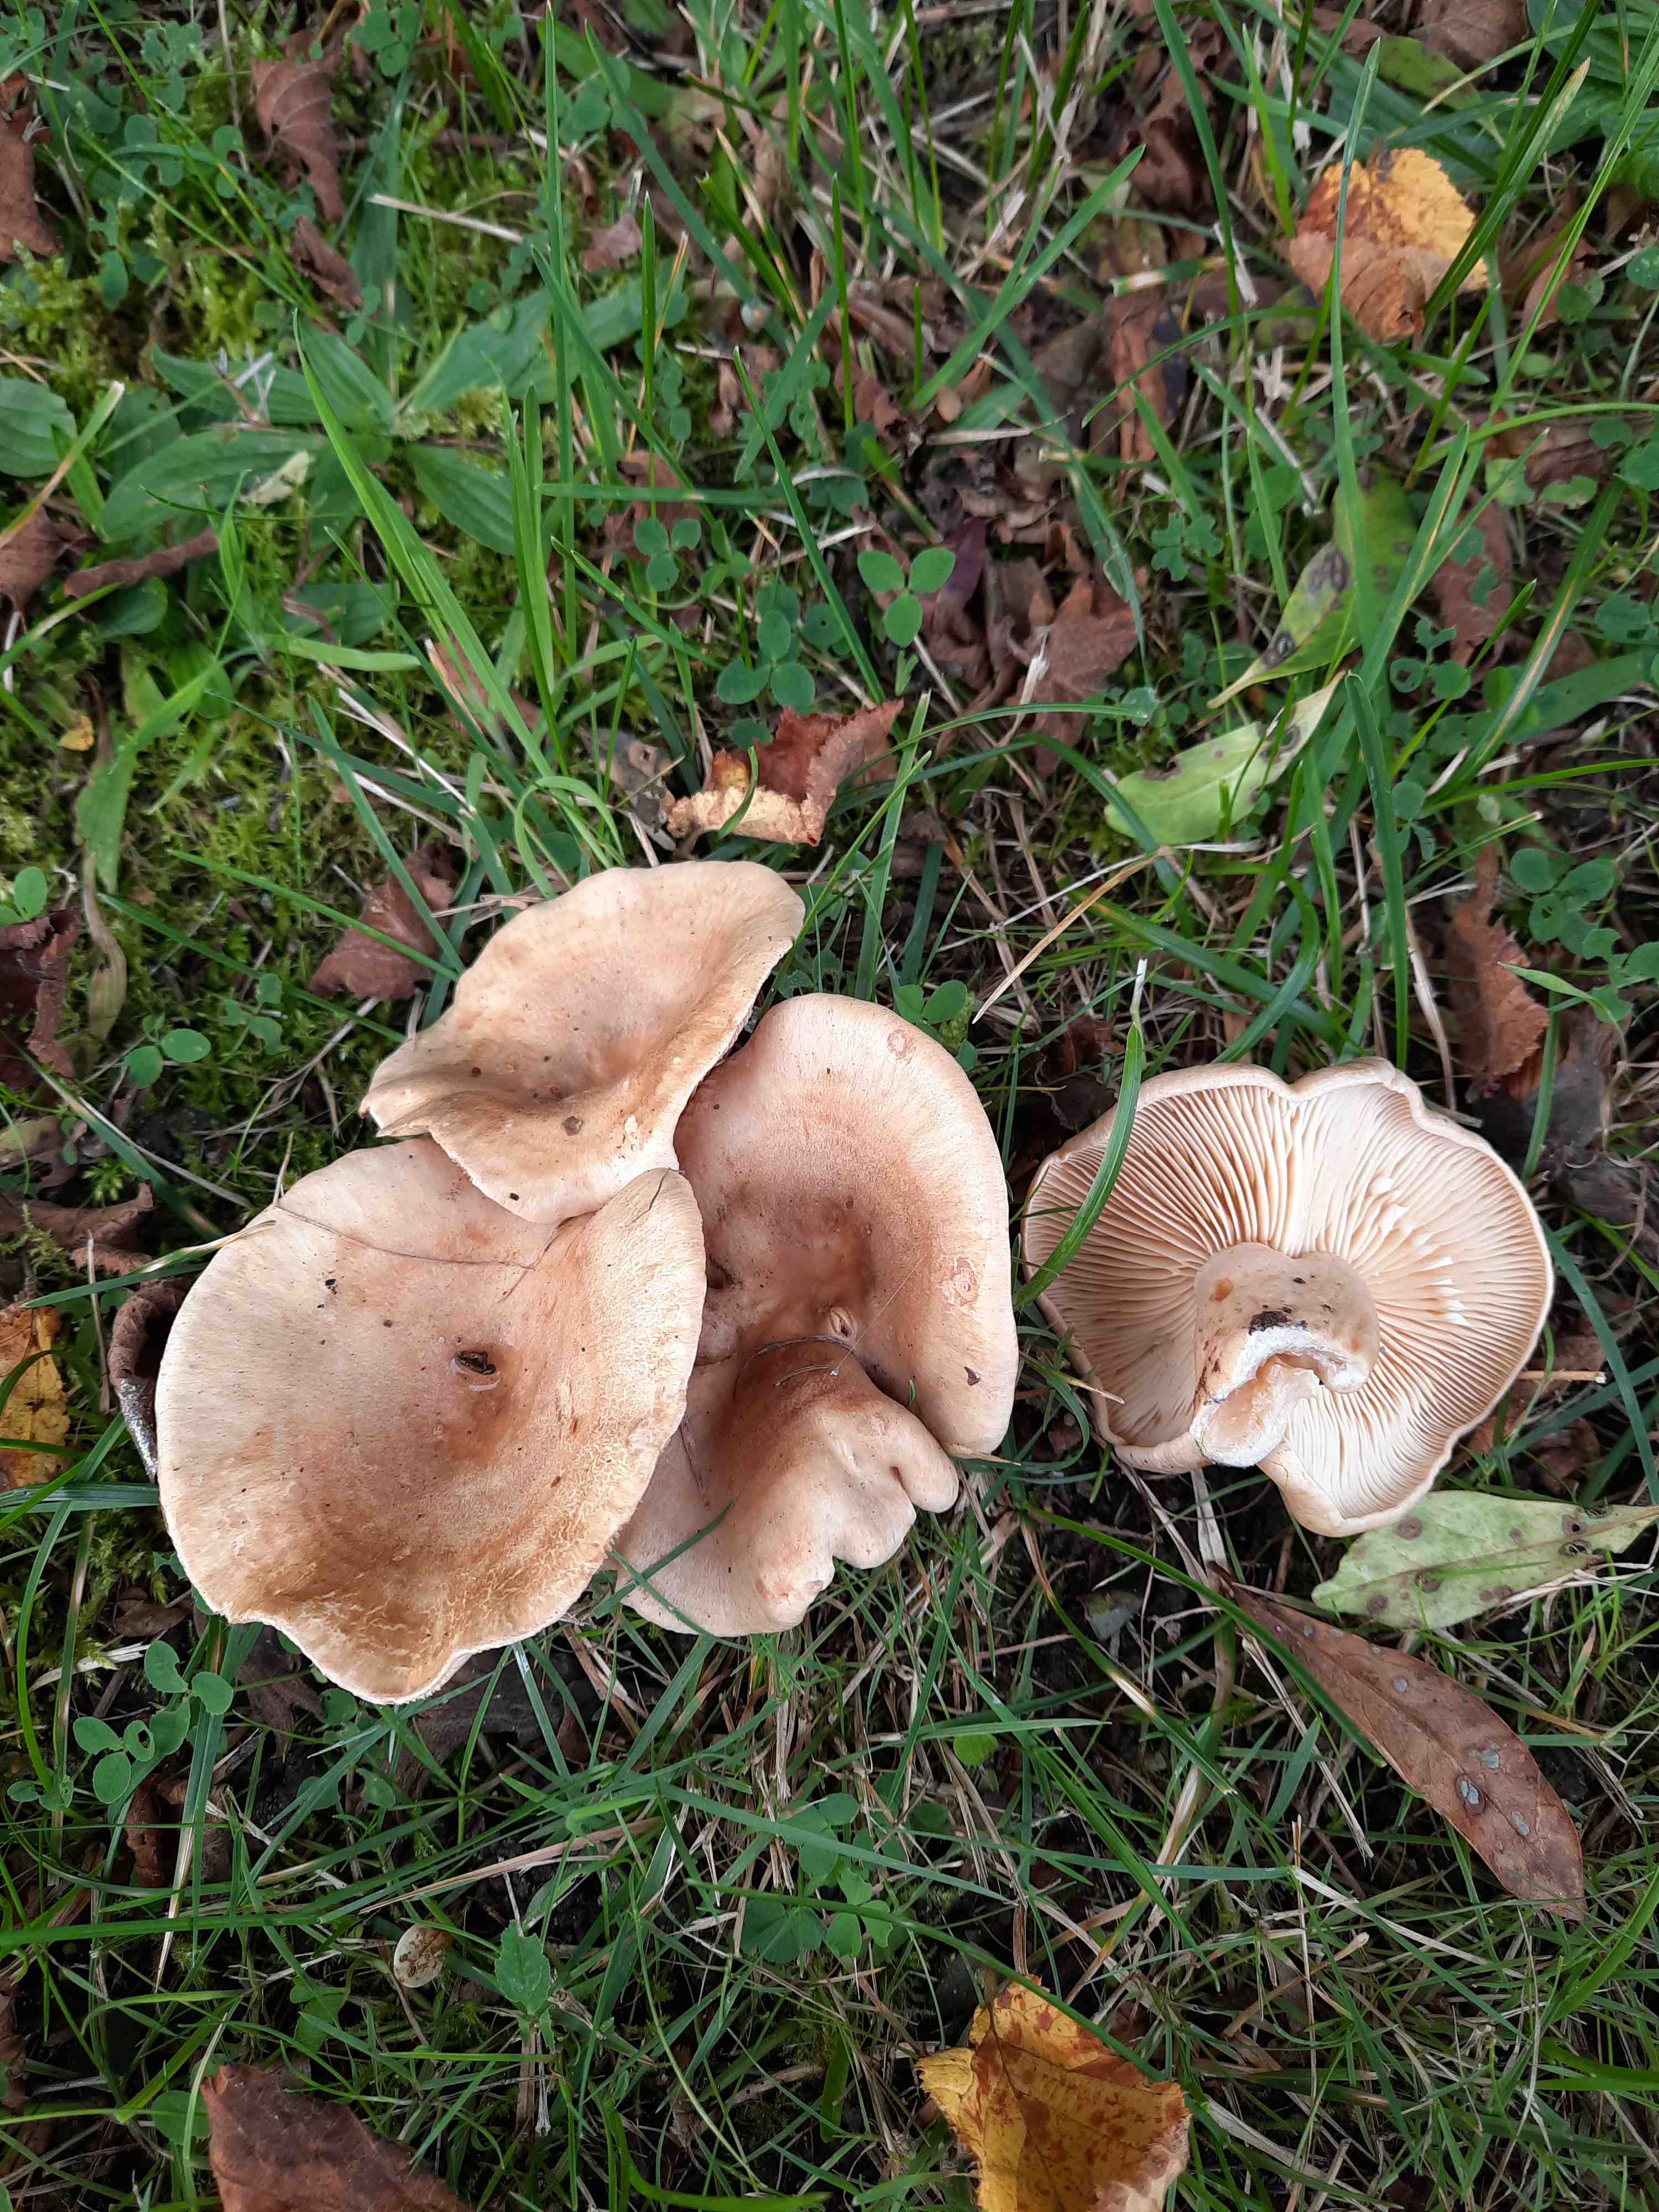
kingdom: Fungi
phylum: Basidiomycota
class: Agaricomycetes
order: Russulales
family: Russulaceae
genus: Lactarius
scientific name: Lactarius pyrogalus
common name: hassel-mælkehat
